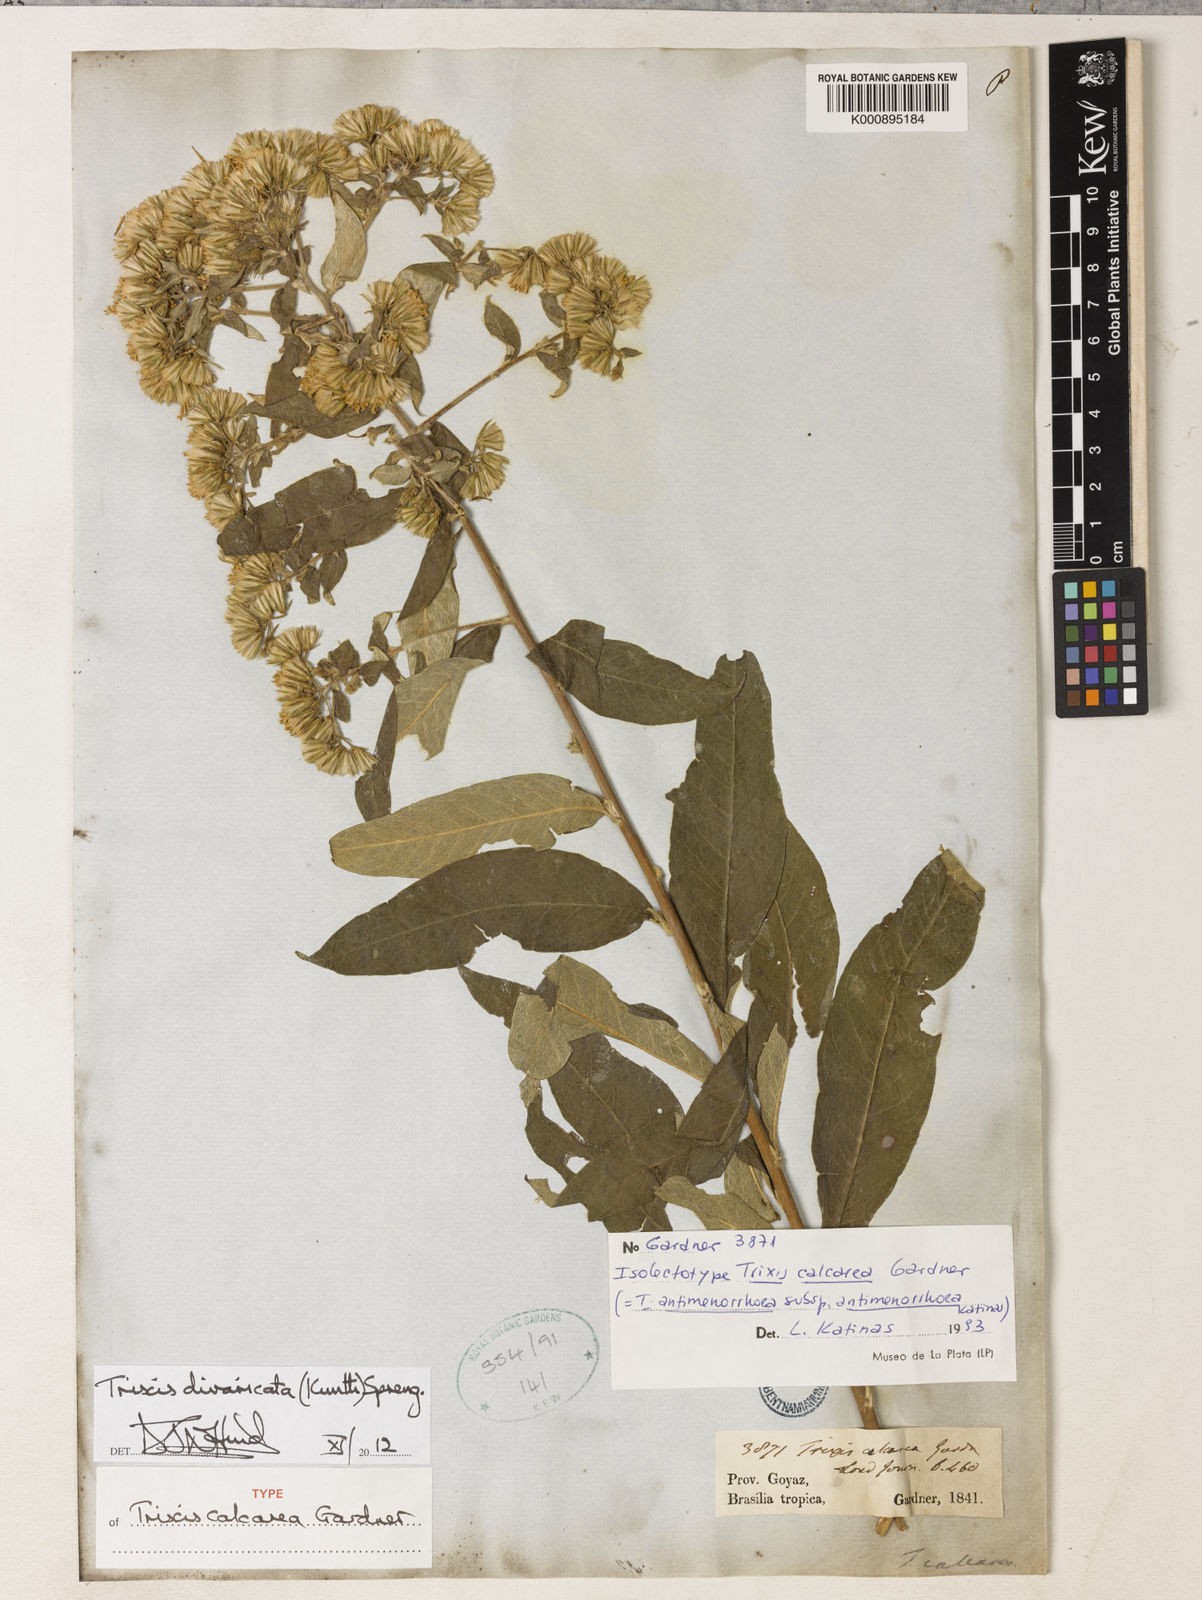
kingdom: Plantae
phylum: Tracheophyta
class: Magnoliopsida
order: Asterales
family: Asteraceae
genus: Trixis
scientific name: Trixis divaricata
